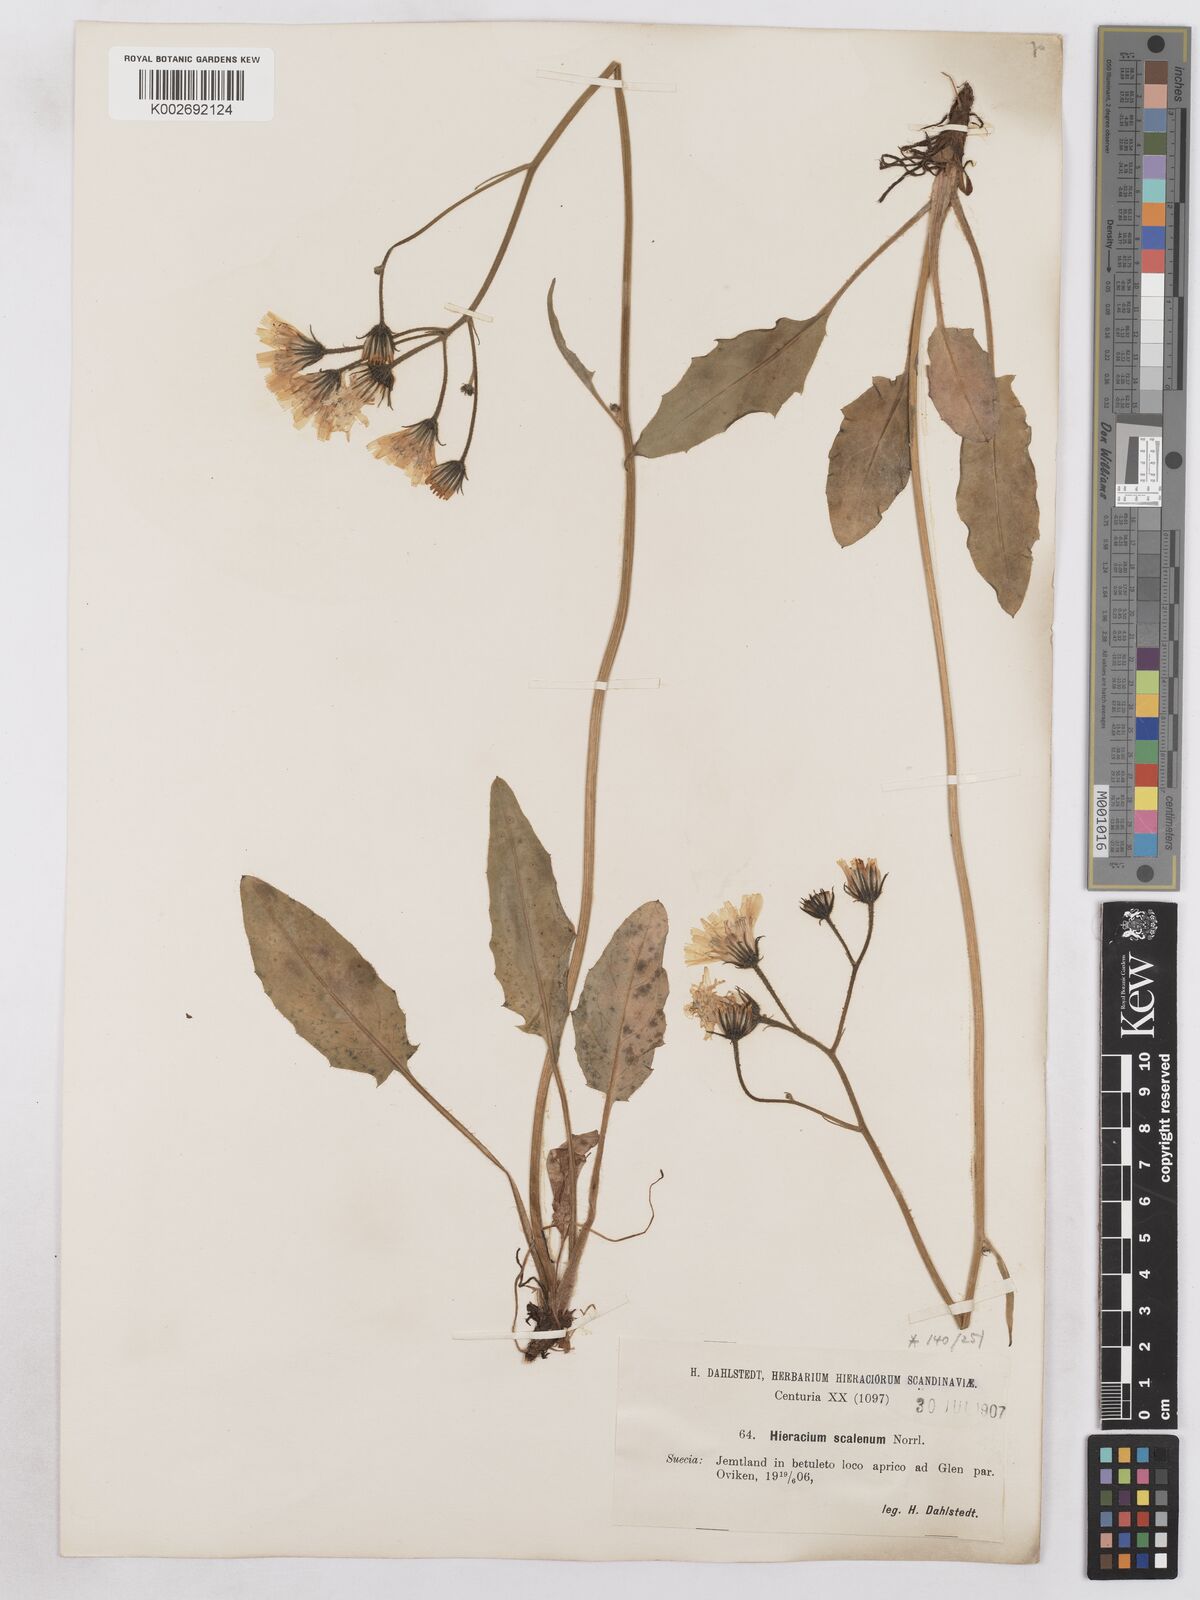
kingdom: Plantae
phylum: Tracheophyta
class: Magnoliopsida
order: Asterales
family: Asteraceae
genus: Hieracium
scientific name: Hieracium fuscocinereum
